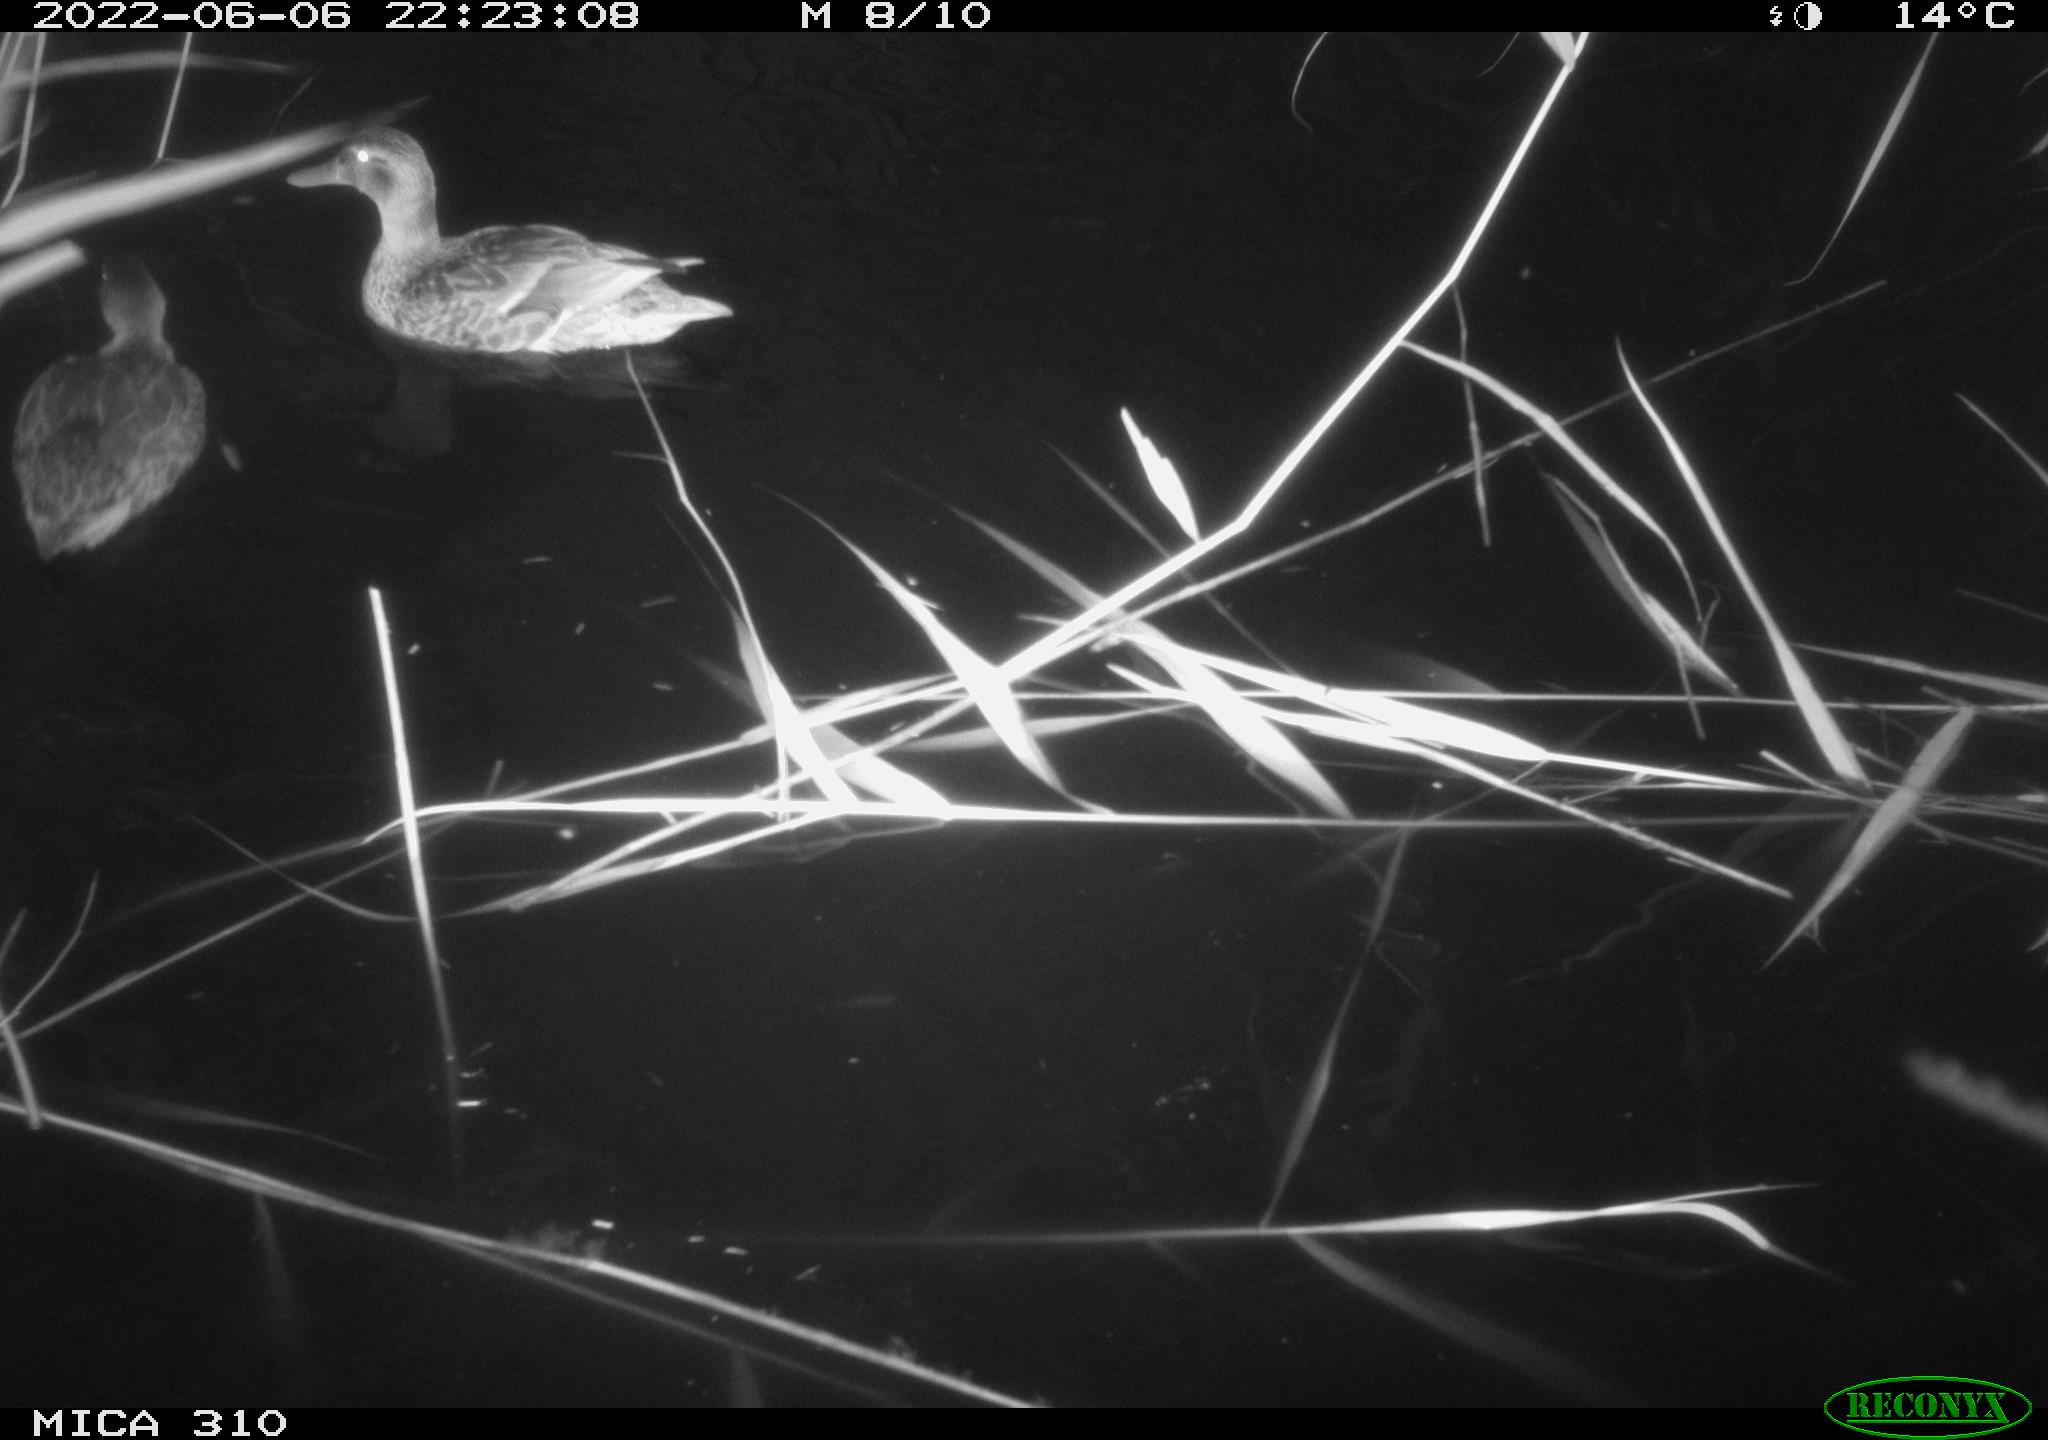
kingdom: Animalia
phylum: Chordata
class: Aves
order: Anseriformes
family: Anatidae
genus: Anas
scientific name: Anas platyrhynchos
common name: Mallard
